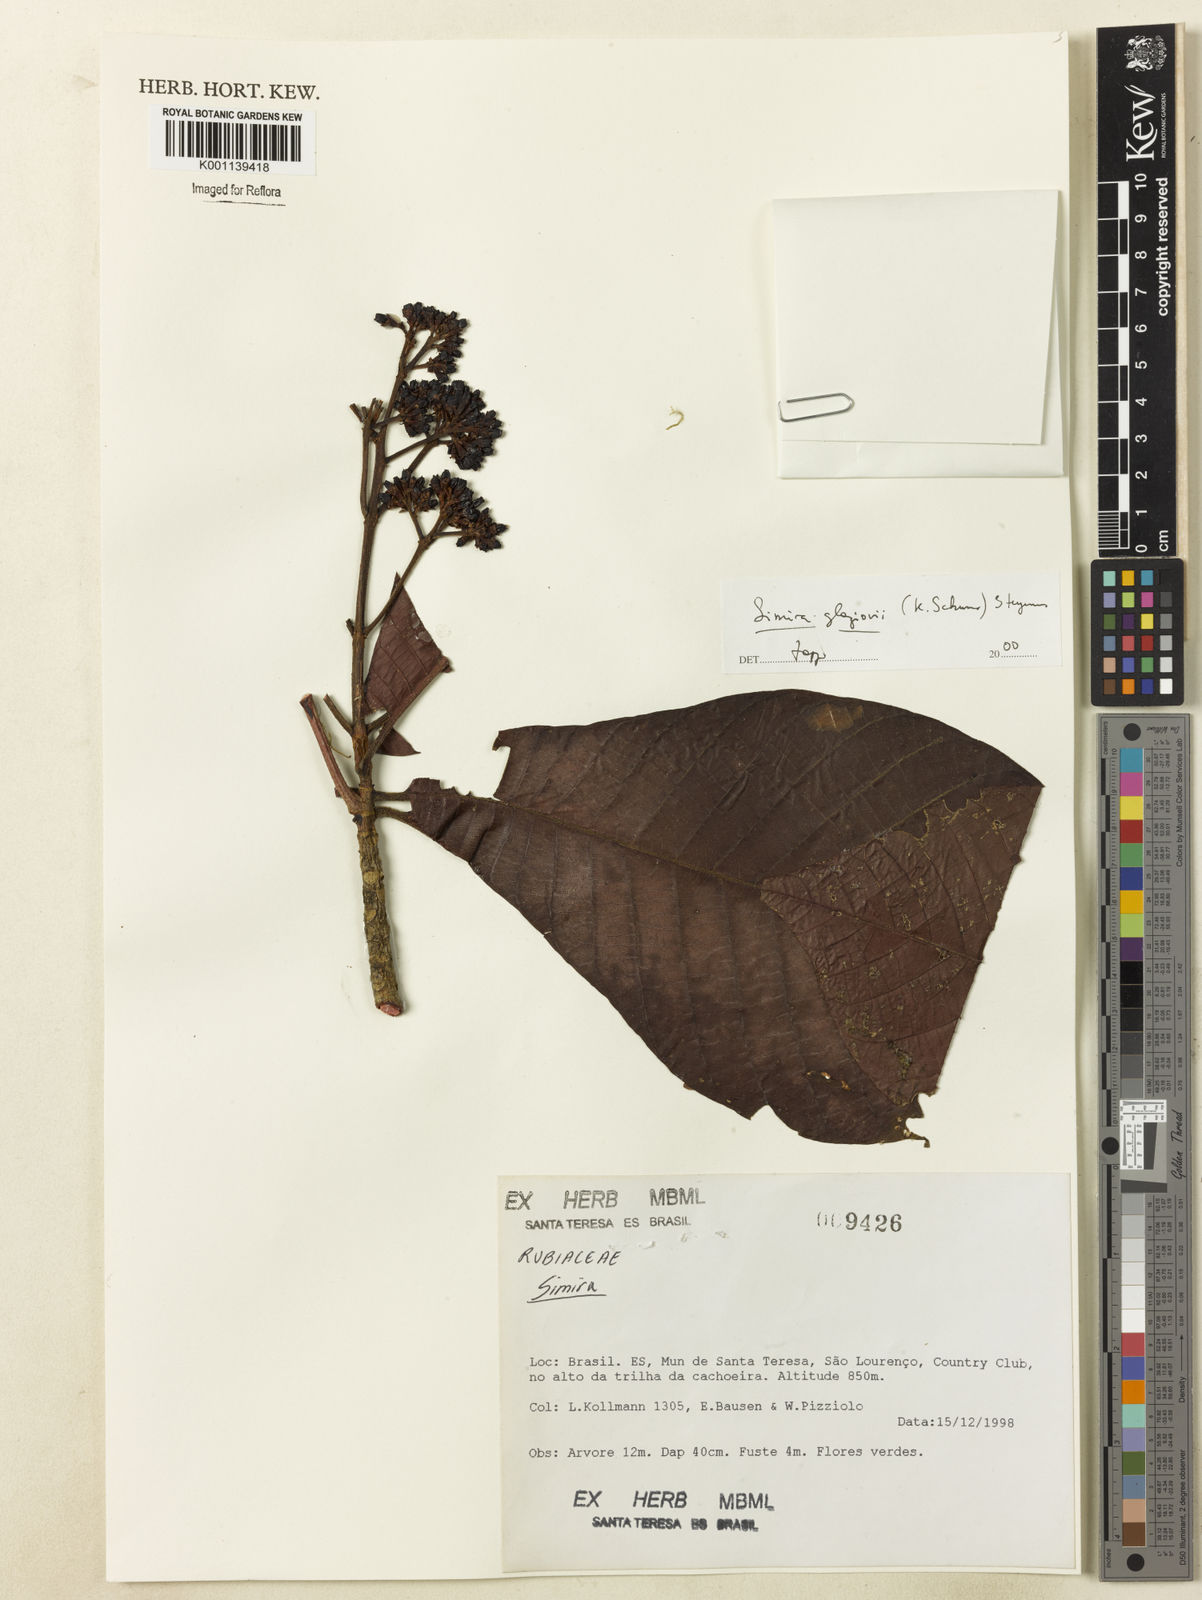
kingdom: Plantae
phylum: Tracheophyta
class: Magnoliopsida
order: Gentianales
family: Rubiaceae
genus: Simira
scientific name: Simira alba
